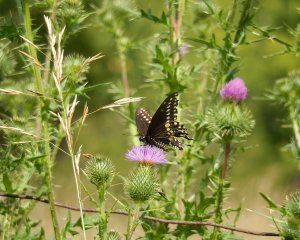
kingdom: Animalia
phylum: Arthropoda
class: Insecta
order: Lepidoptera
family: Papilionidae
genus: Papilio
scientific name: Papilio polyxenes
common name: Black Swallowtail
